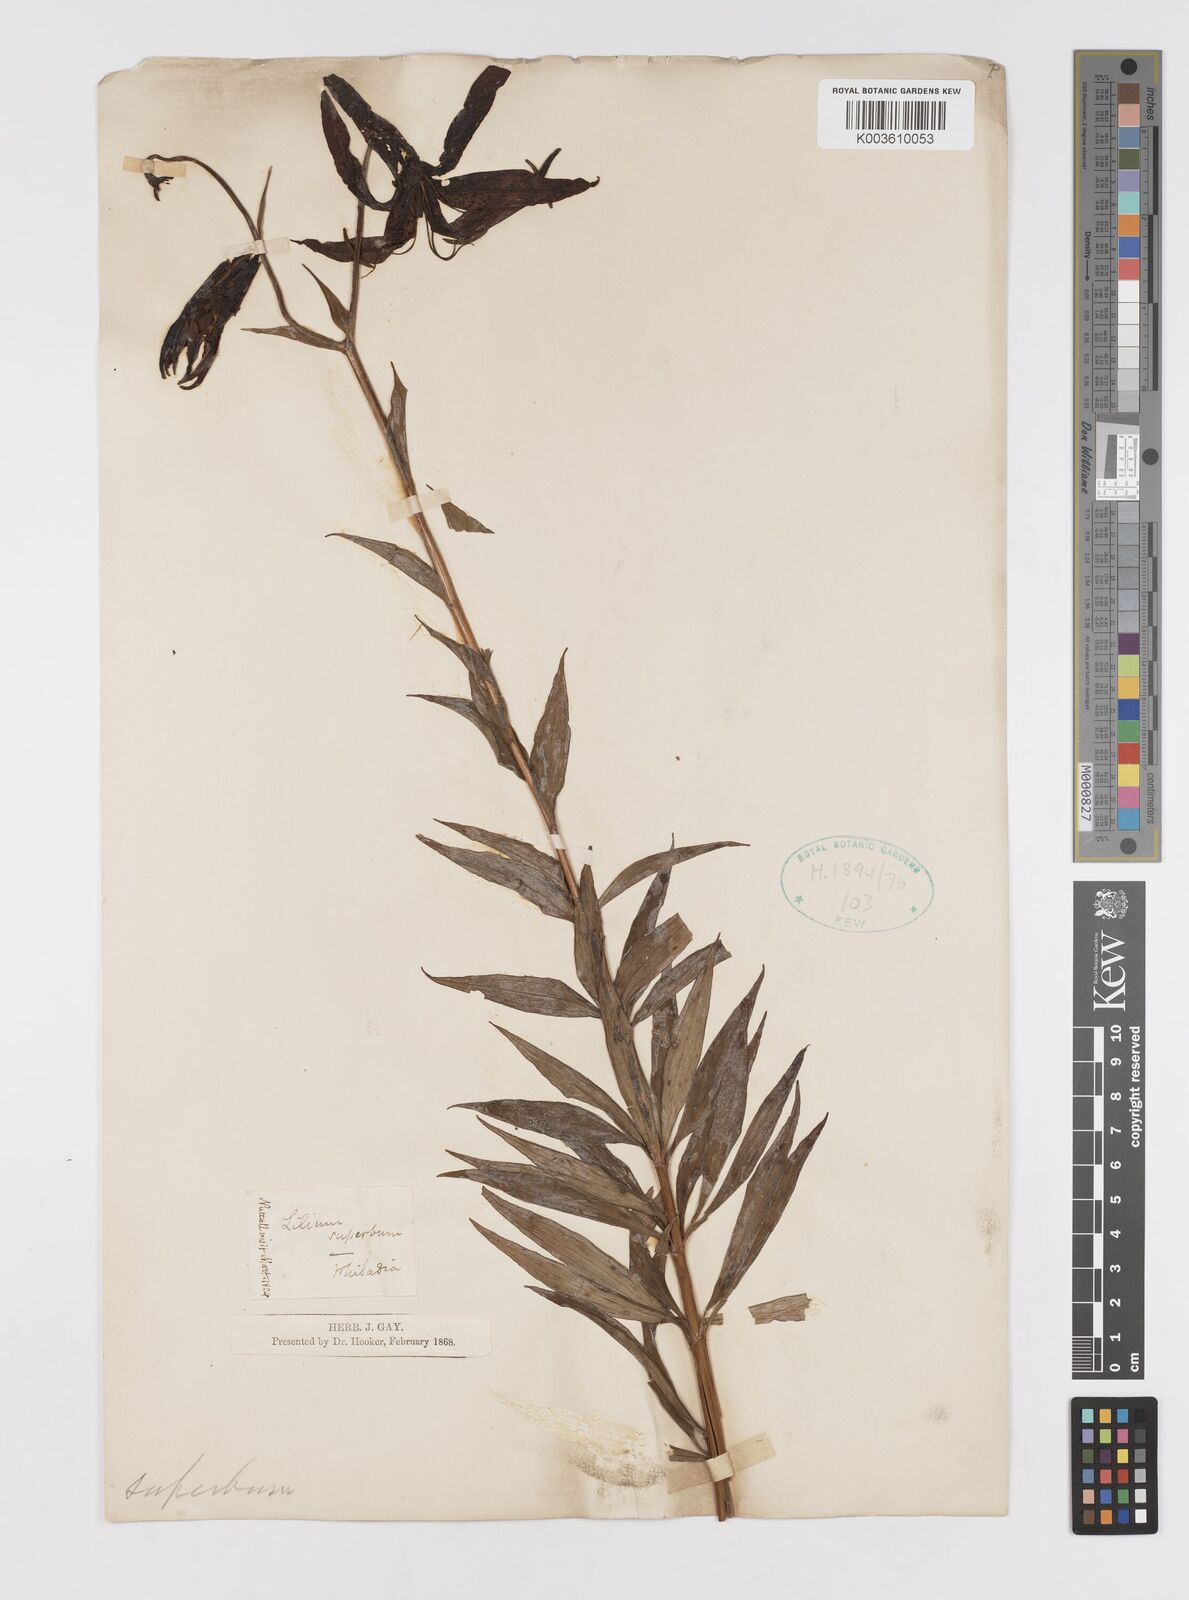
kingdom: Plantae
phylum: Tracheophyta
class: Liliopsida
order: Liliales
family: Liliaceae
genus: Lilium
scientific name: Lilium superbum
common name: American turk's-cap lily
